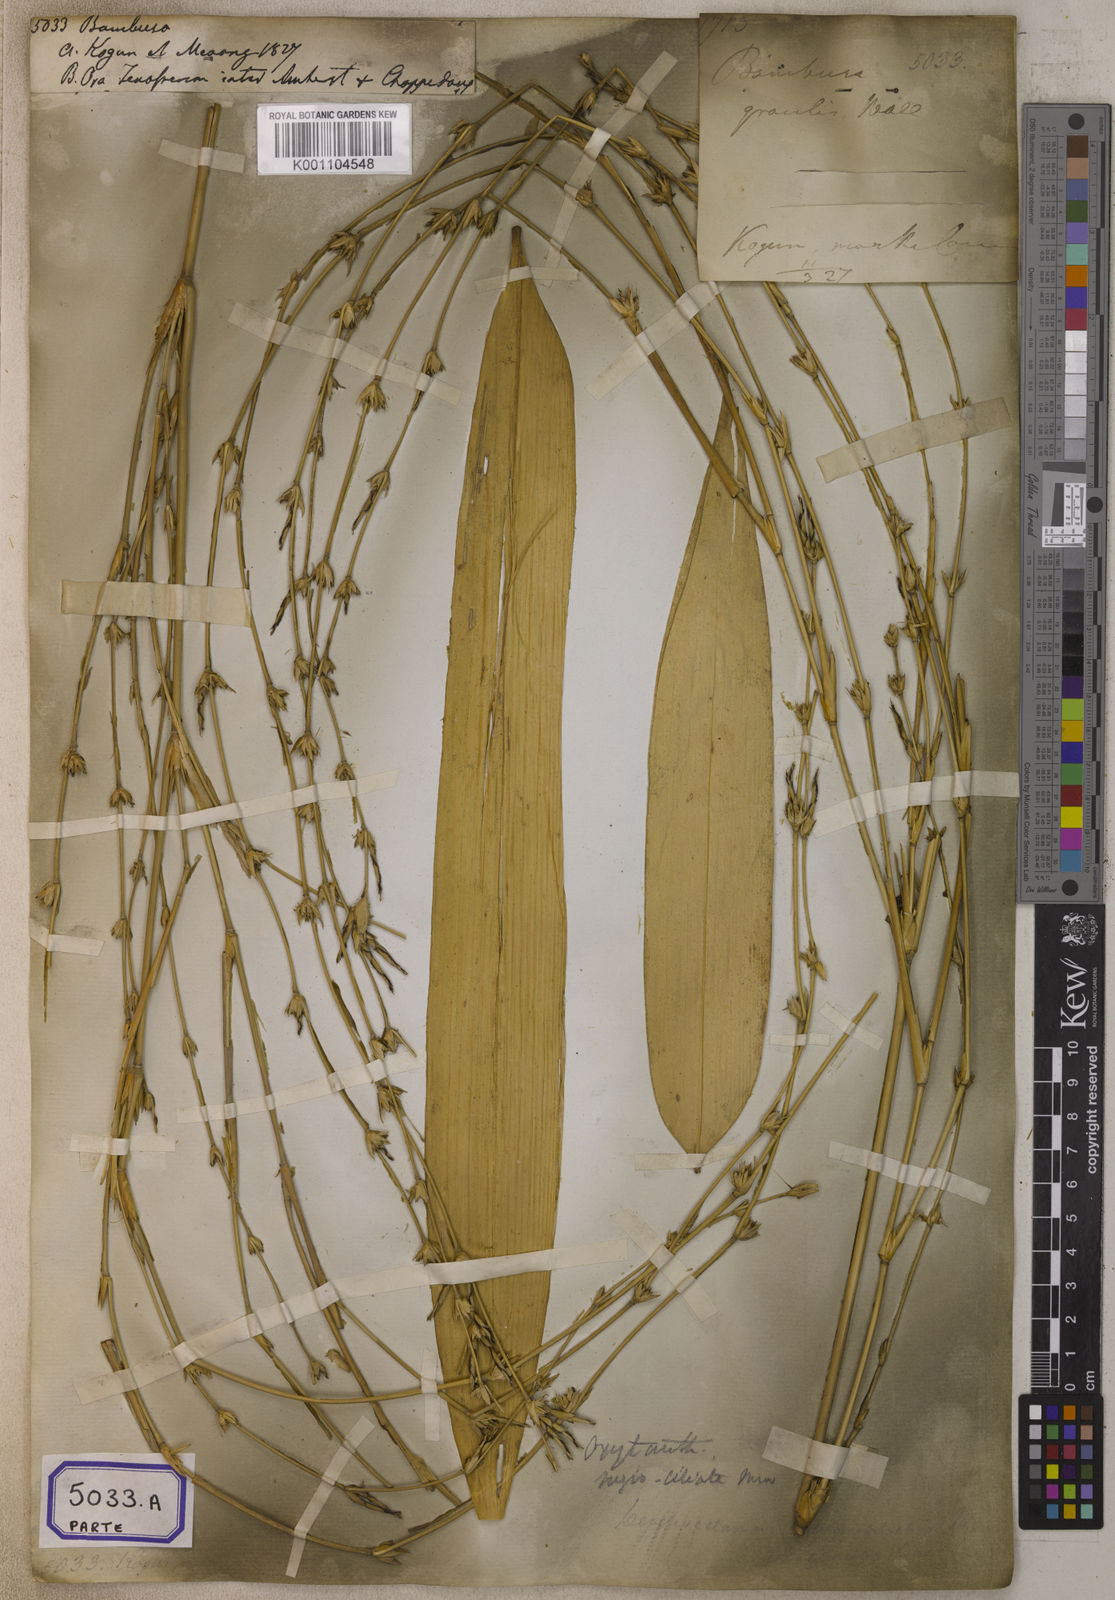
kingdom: Plantae
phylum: Tracheophyta
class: Liliopsida
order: Poales
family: Poaceae
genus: Bambusa
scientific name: Bambusa
